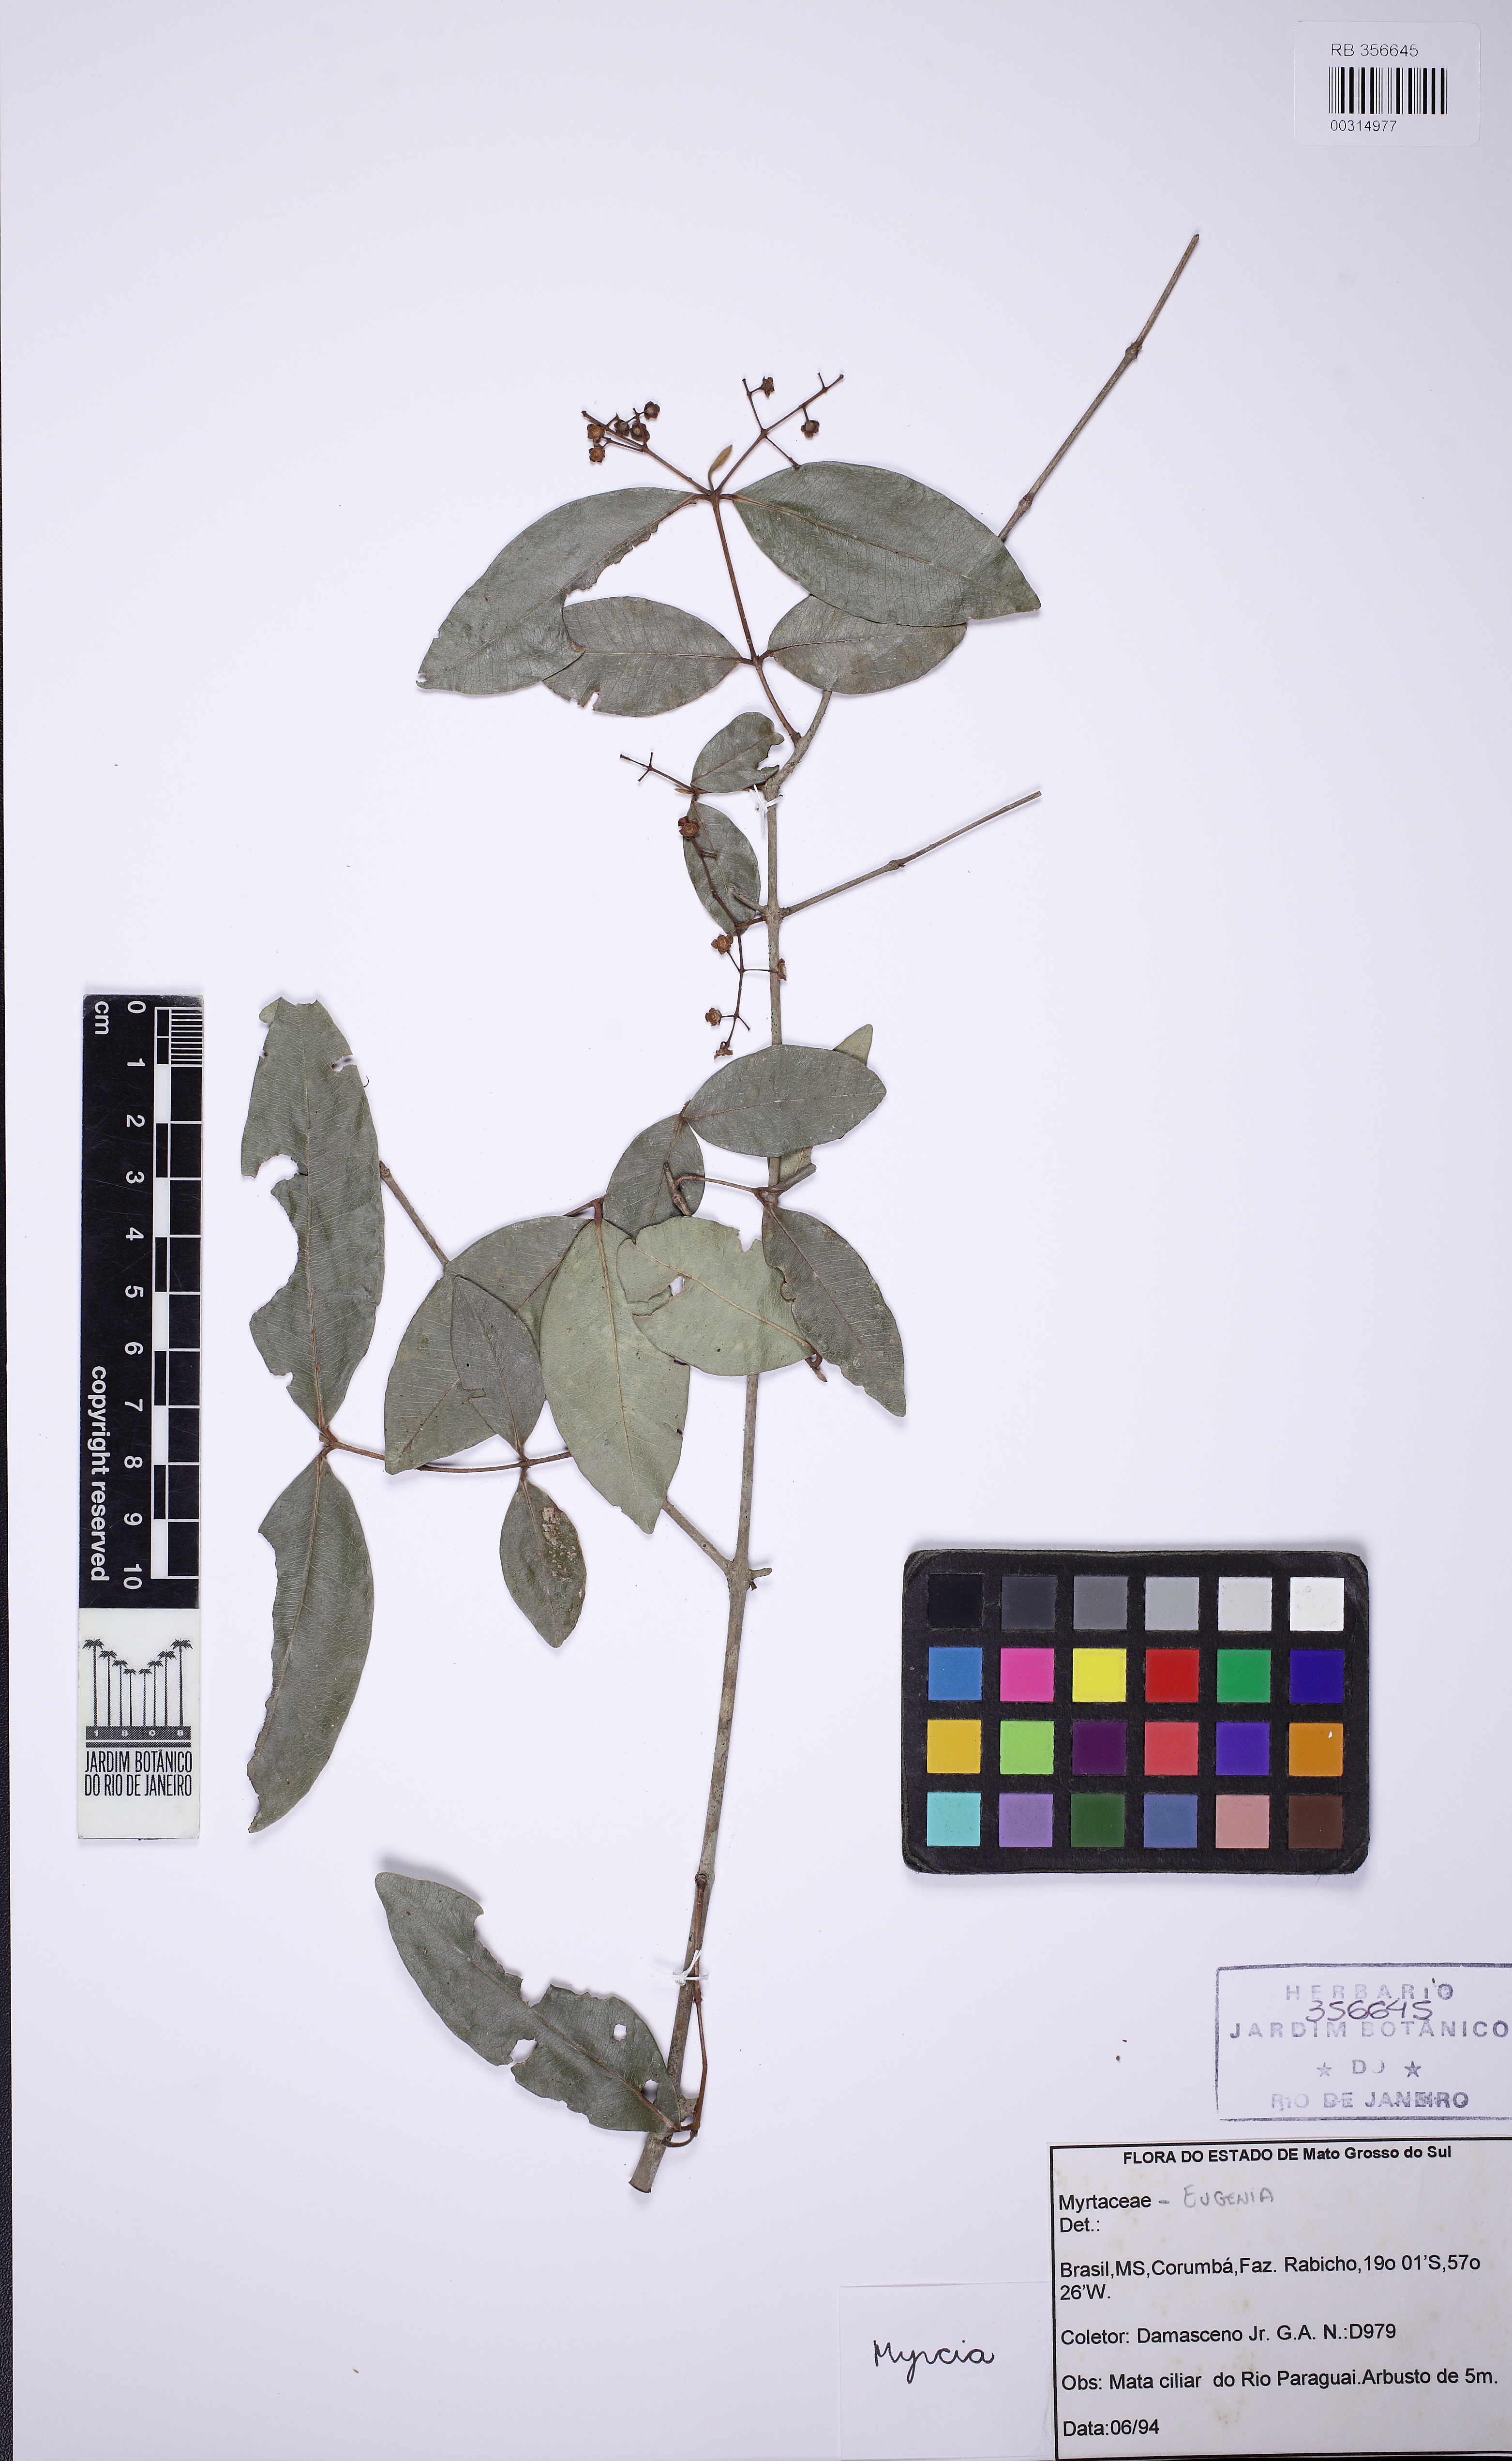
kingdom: Plantae
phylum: Tracheophyta
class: Magnoliopsida
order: Myrtales
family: Myrtaceae
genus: Myrcia
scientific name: Myrcia
